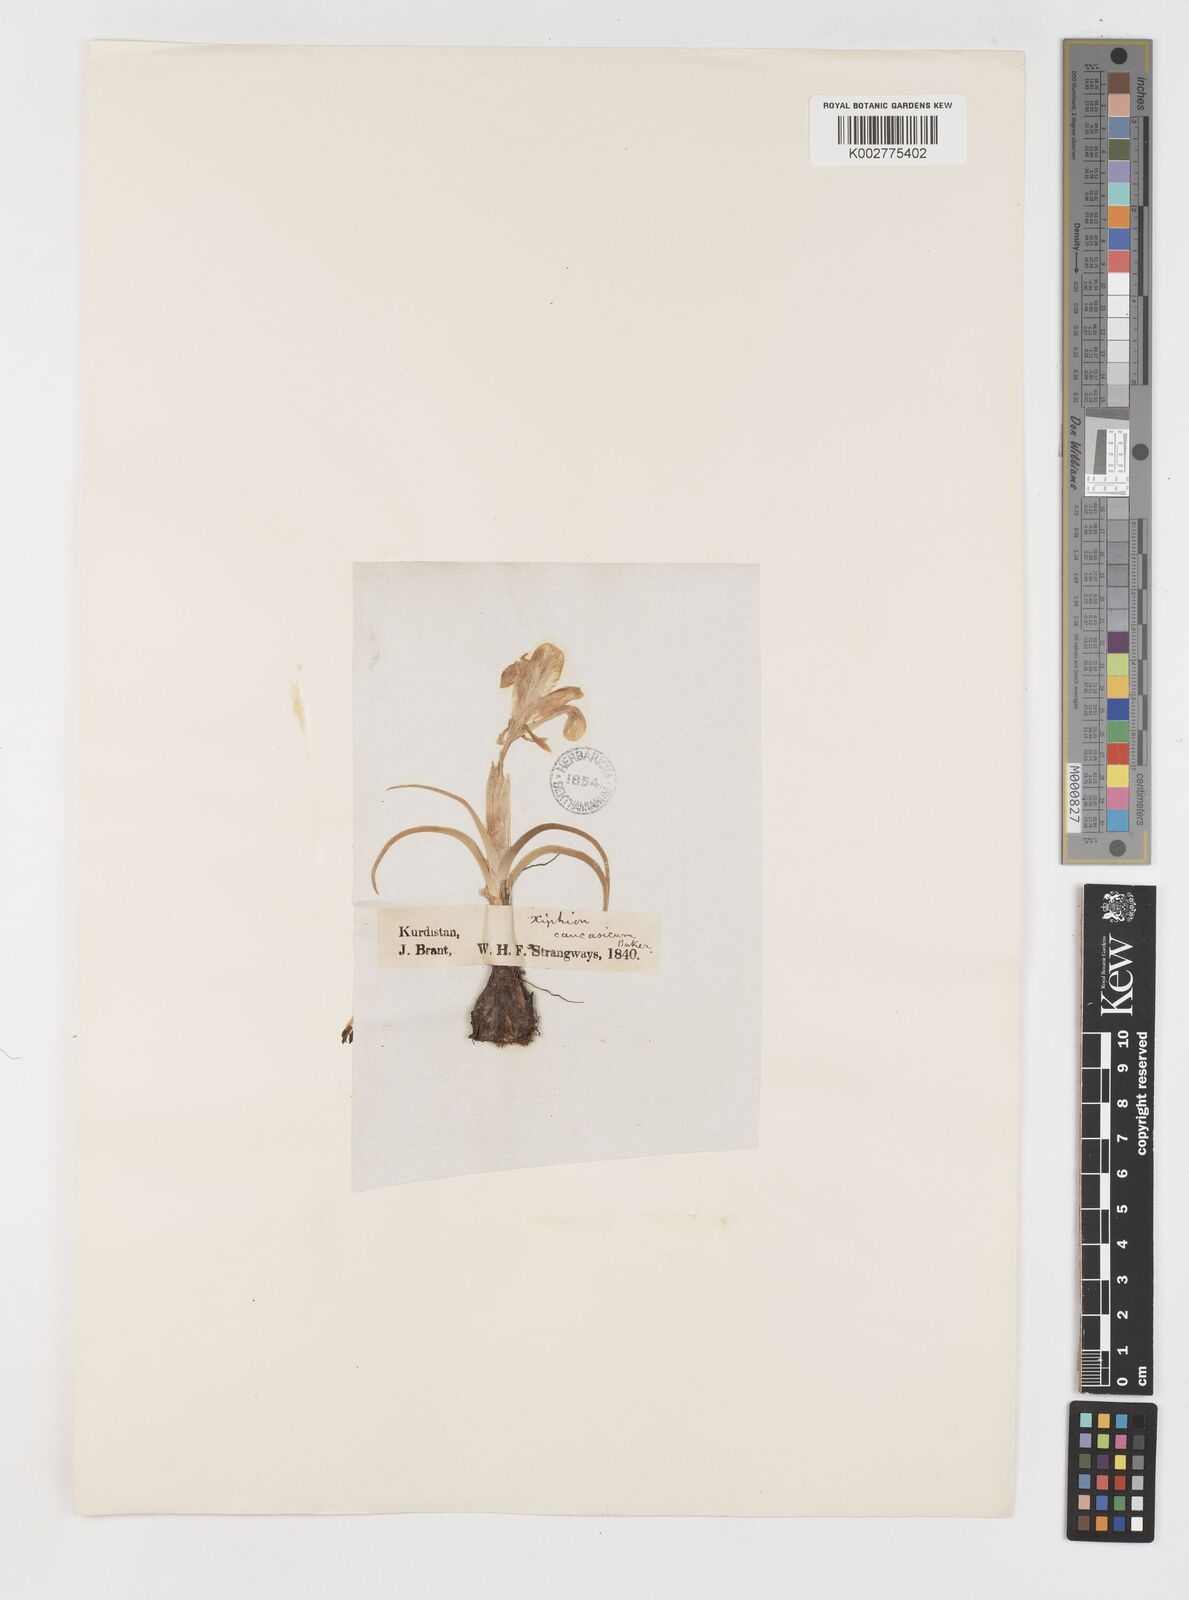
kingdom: Plantae
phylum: Tracheophyta
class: Liliopsida
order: Asparagales
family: Iridaceae
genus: Iris
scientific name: Iris caucasica
